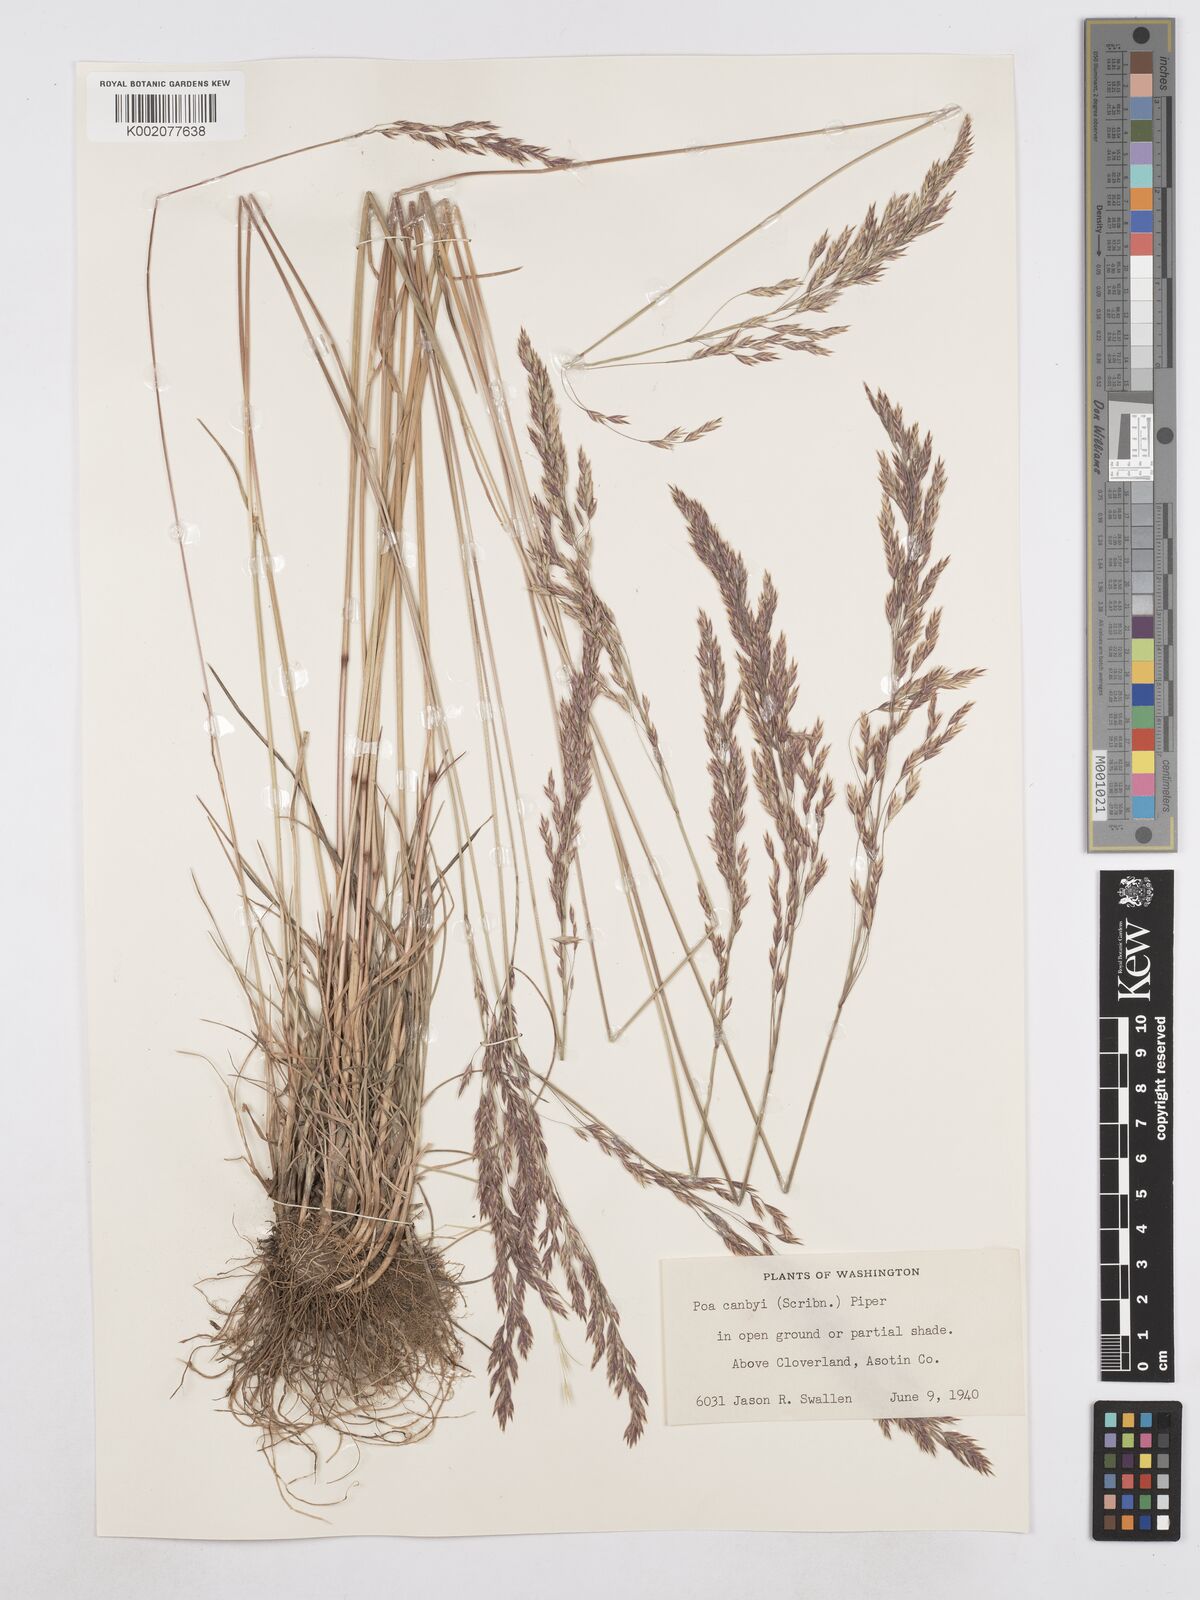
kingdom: Plantae
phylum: Tracheophyta
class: Liliopsida
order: Poales
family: Poaceae
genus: Poa
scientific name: Poa secunda
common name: Sandberg bluegrass
